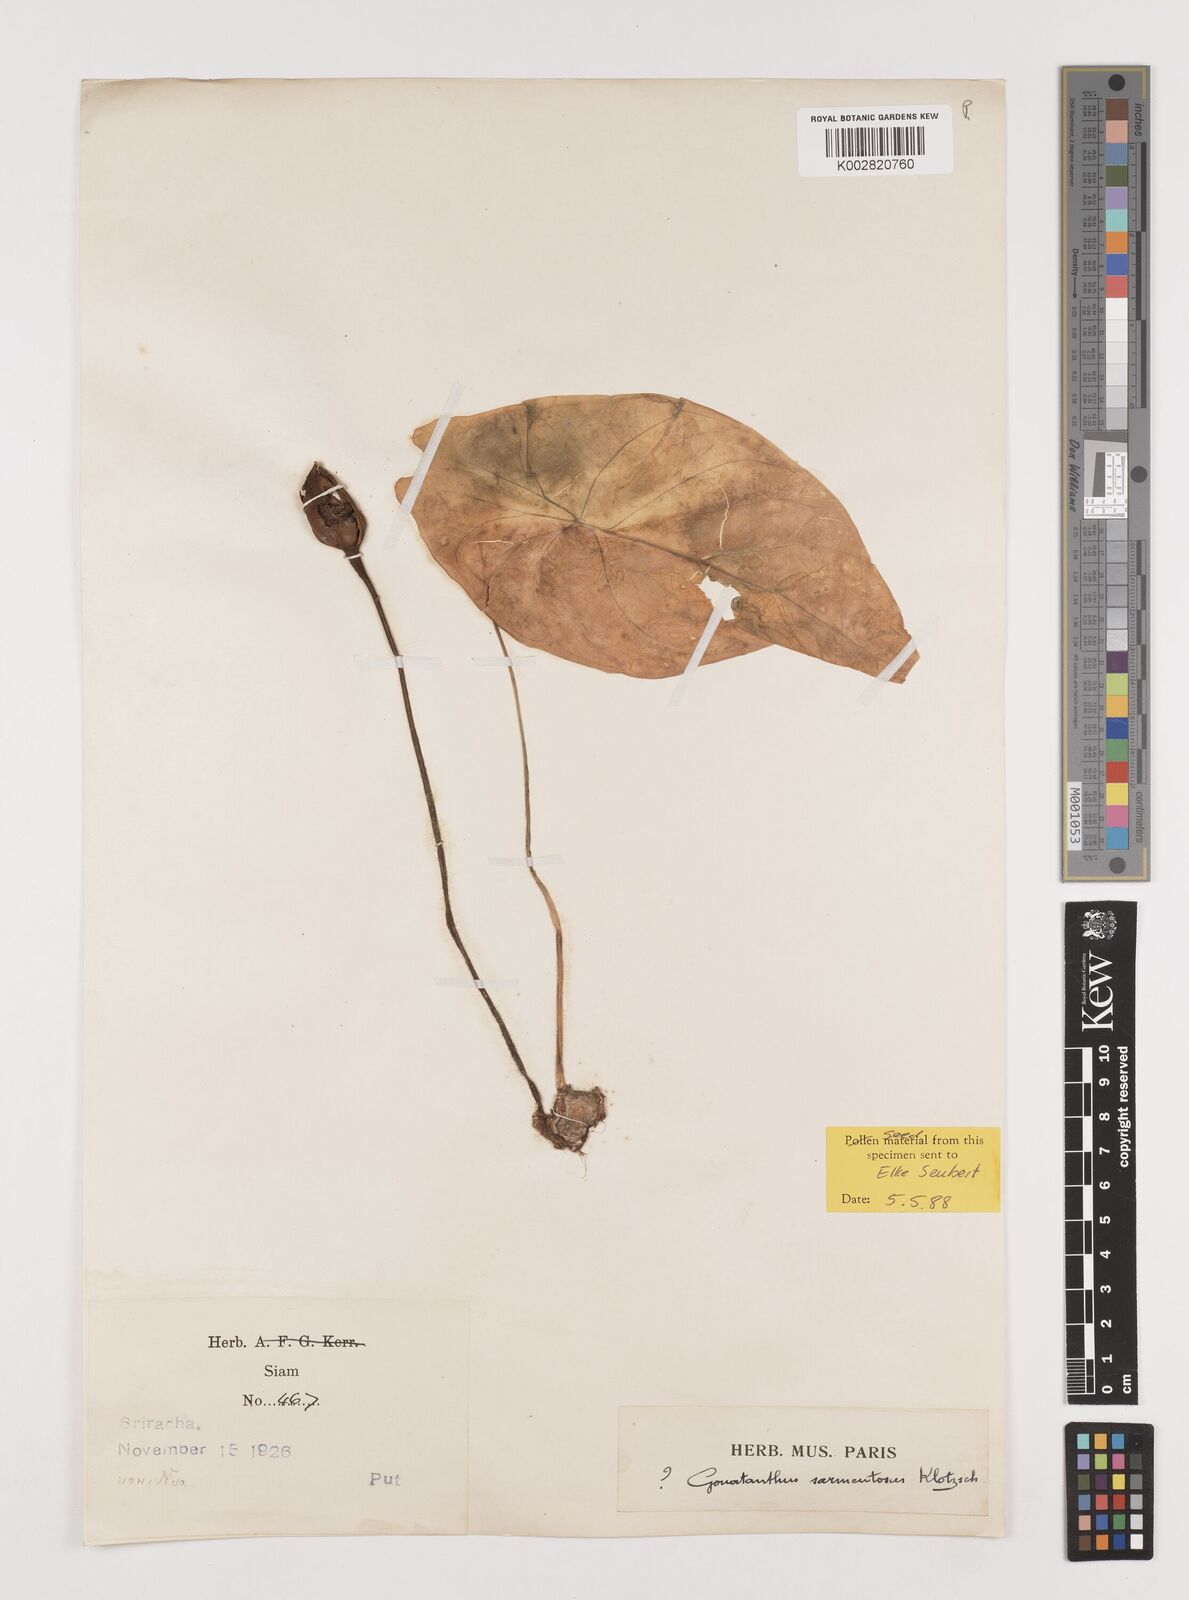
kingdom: Plantae
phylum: Tracheophyta
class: Liliopsida
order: Alismatales
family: Araceae
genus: Remusatia
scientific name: Remusatia pumila
